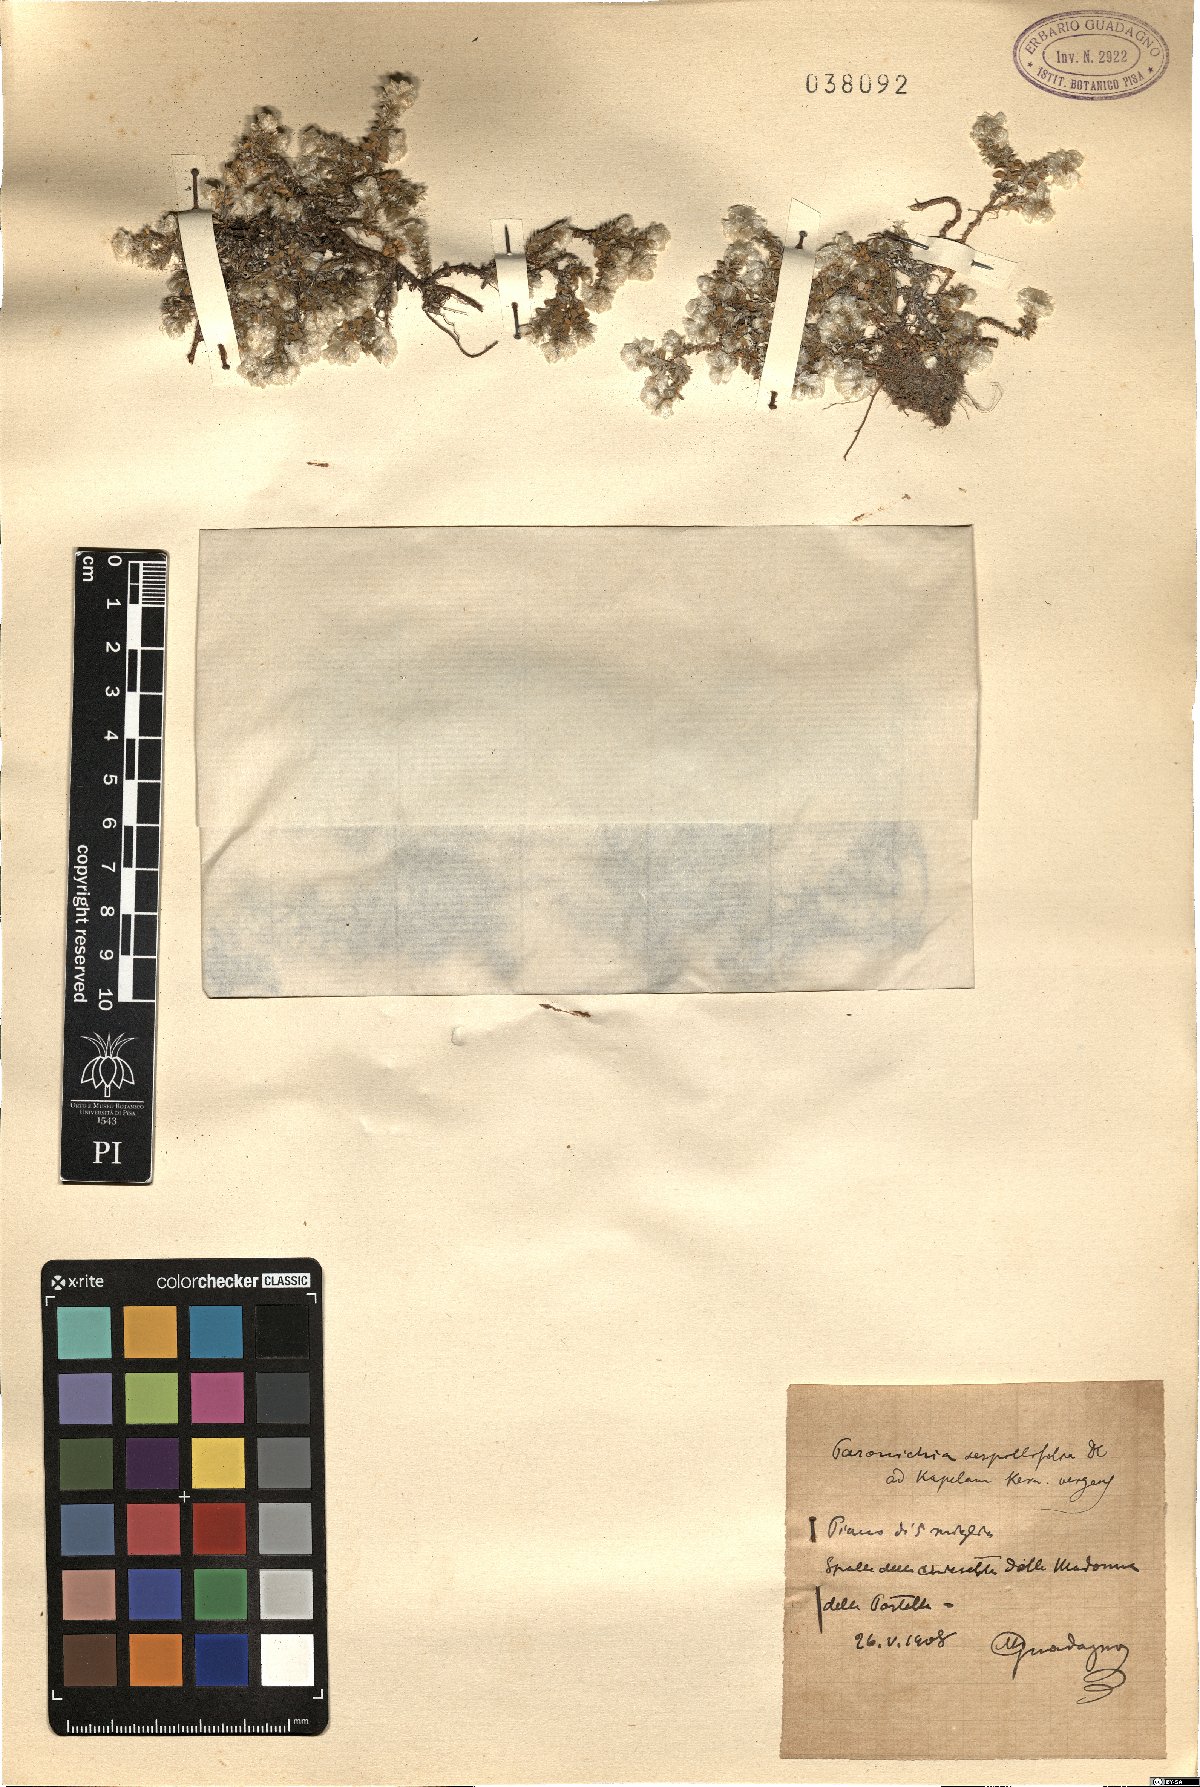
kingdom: Plantae
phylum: Tracheophyta
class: Magnoliopsida
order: Caryophyllales
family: Caryophyllaceae
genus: Paronychia
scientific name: Paronychia kapela
